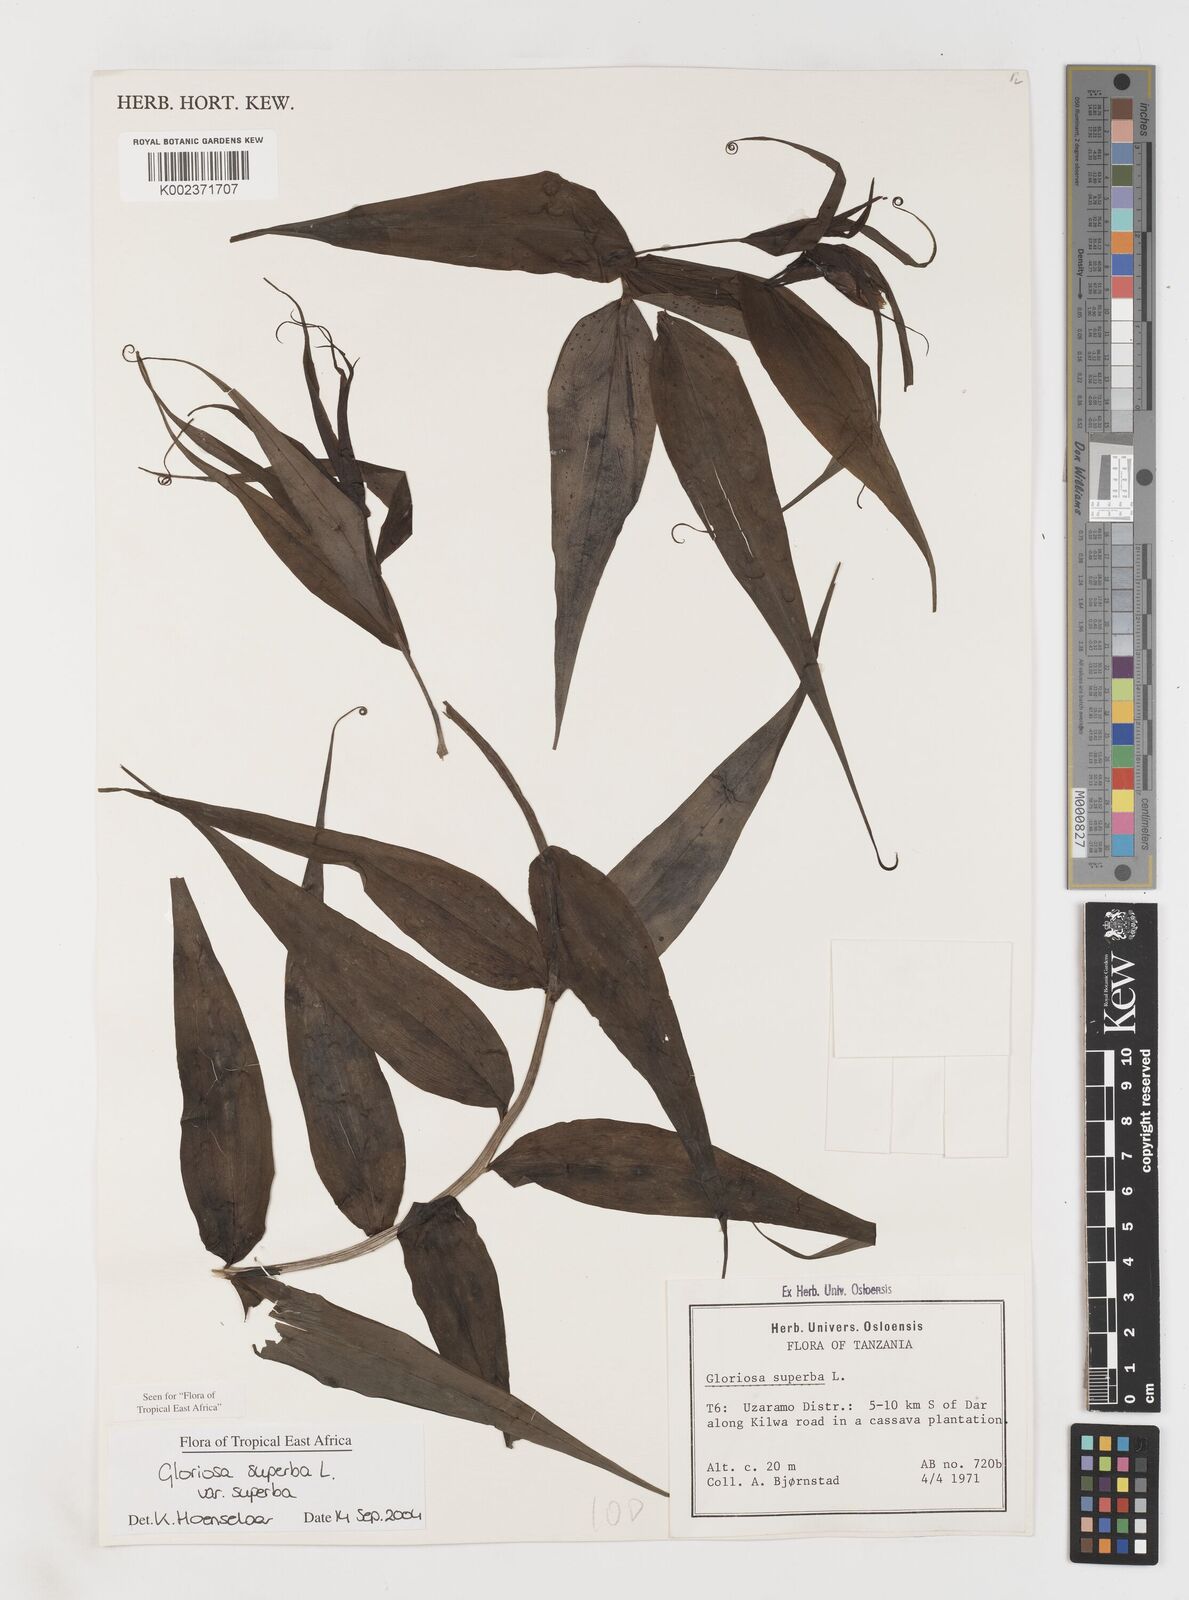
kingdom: Plantae
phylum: Tracheophyta
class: Liliopsida
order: Liliales
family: Colchicaceae
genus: Gloriosa
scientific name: Gloriosa simplex
